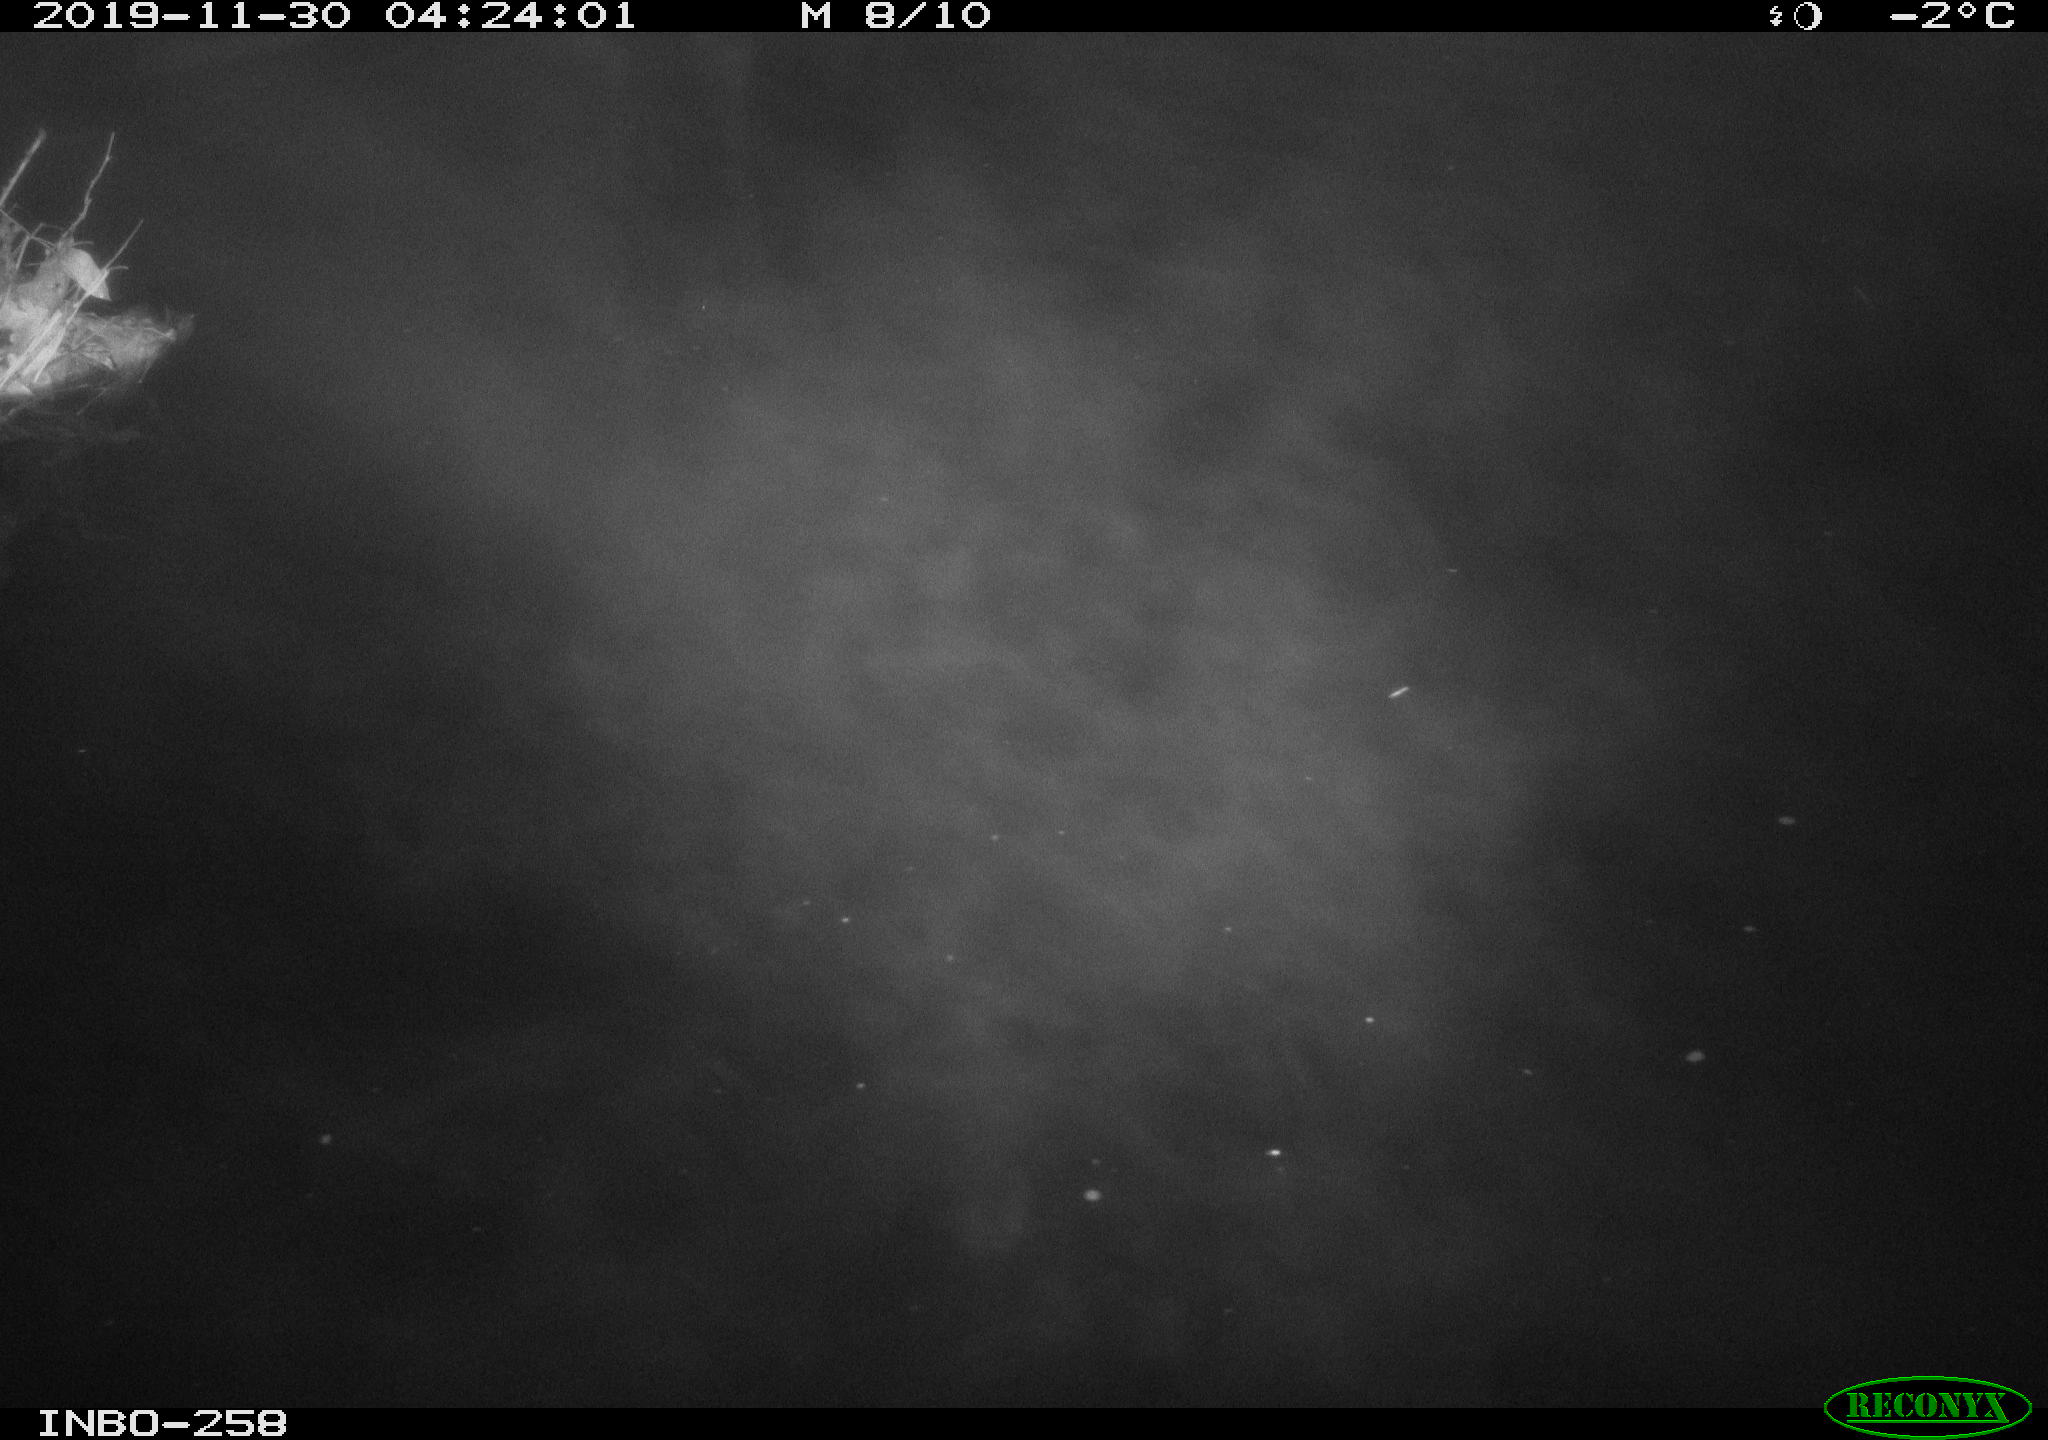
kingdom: Animalia
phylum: Chordata
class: Aves
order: Anseriformes
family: Anatidae
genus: Anas
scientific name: Anas platyrhynchos
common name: Mallard
